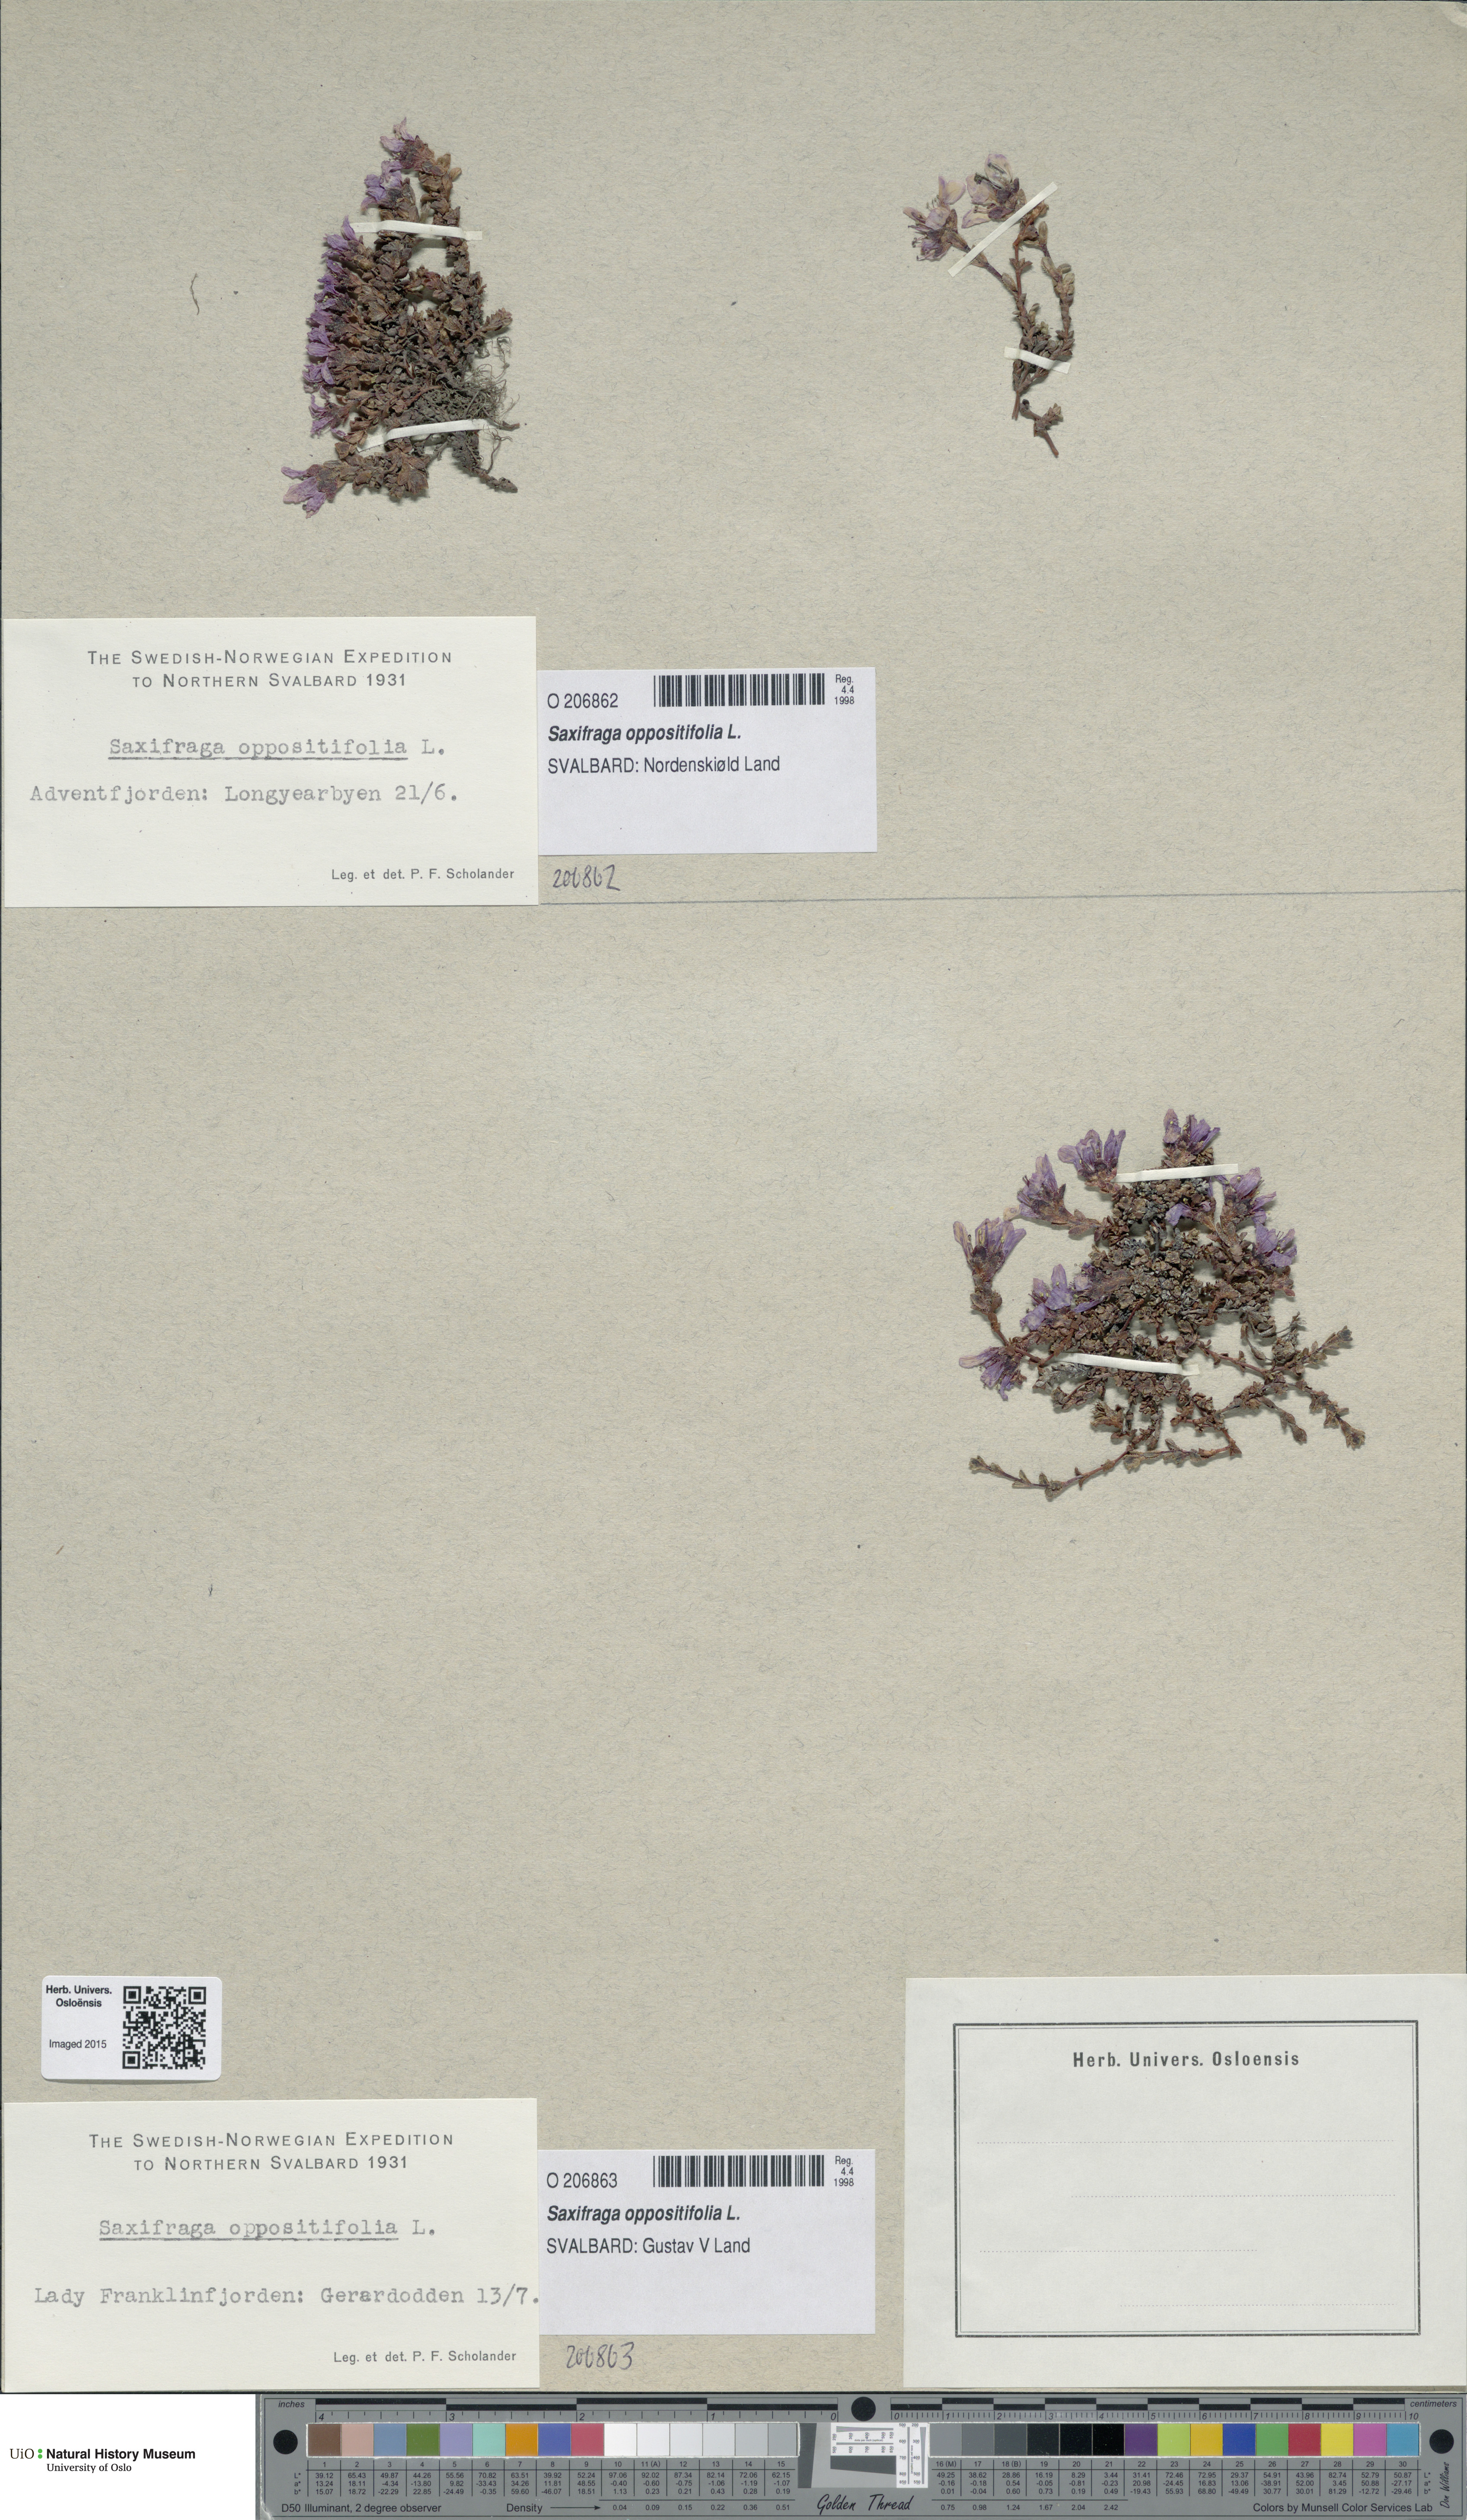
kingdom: Plantae
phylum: Tracheophyta
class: Magnoliopsida
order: Saxifragales
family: Saxifragaceae
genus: Saxifraga
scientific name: Saxifraga oppositifolia
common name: Purple saxifrage
